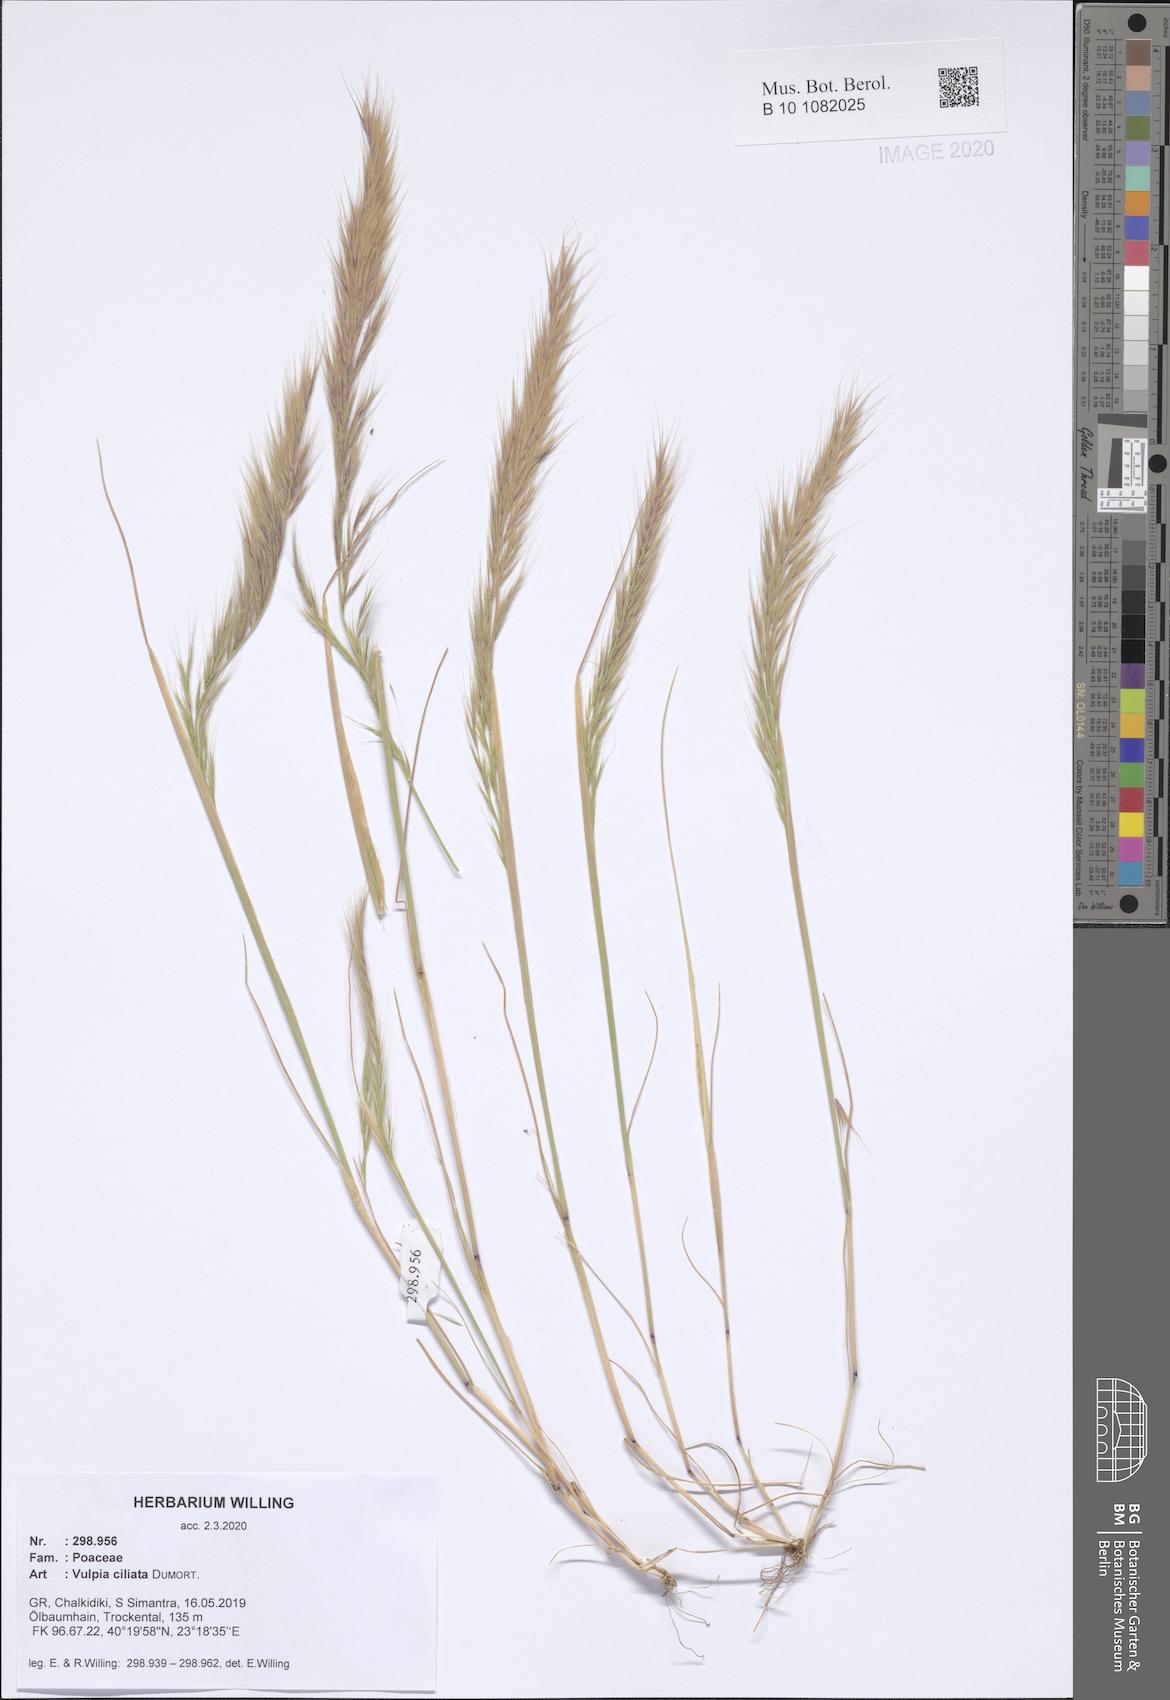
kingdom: Plantae
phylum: Tracheophyta
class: Liliopsida
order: Poales
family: Poaceae
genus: Festuca
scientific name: Festuca ambigua
